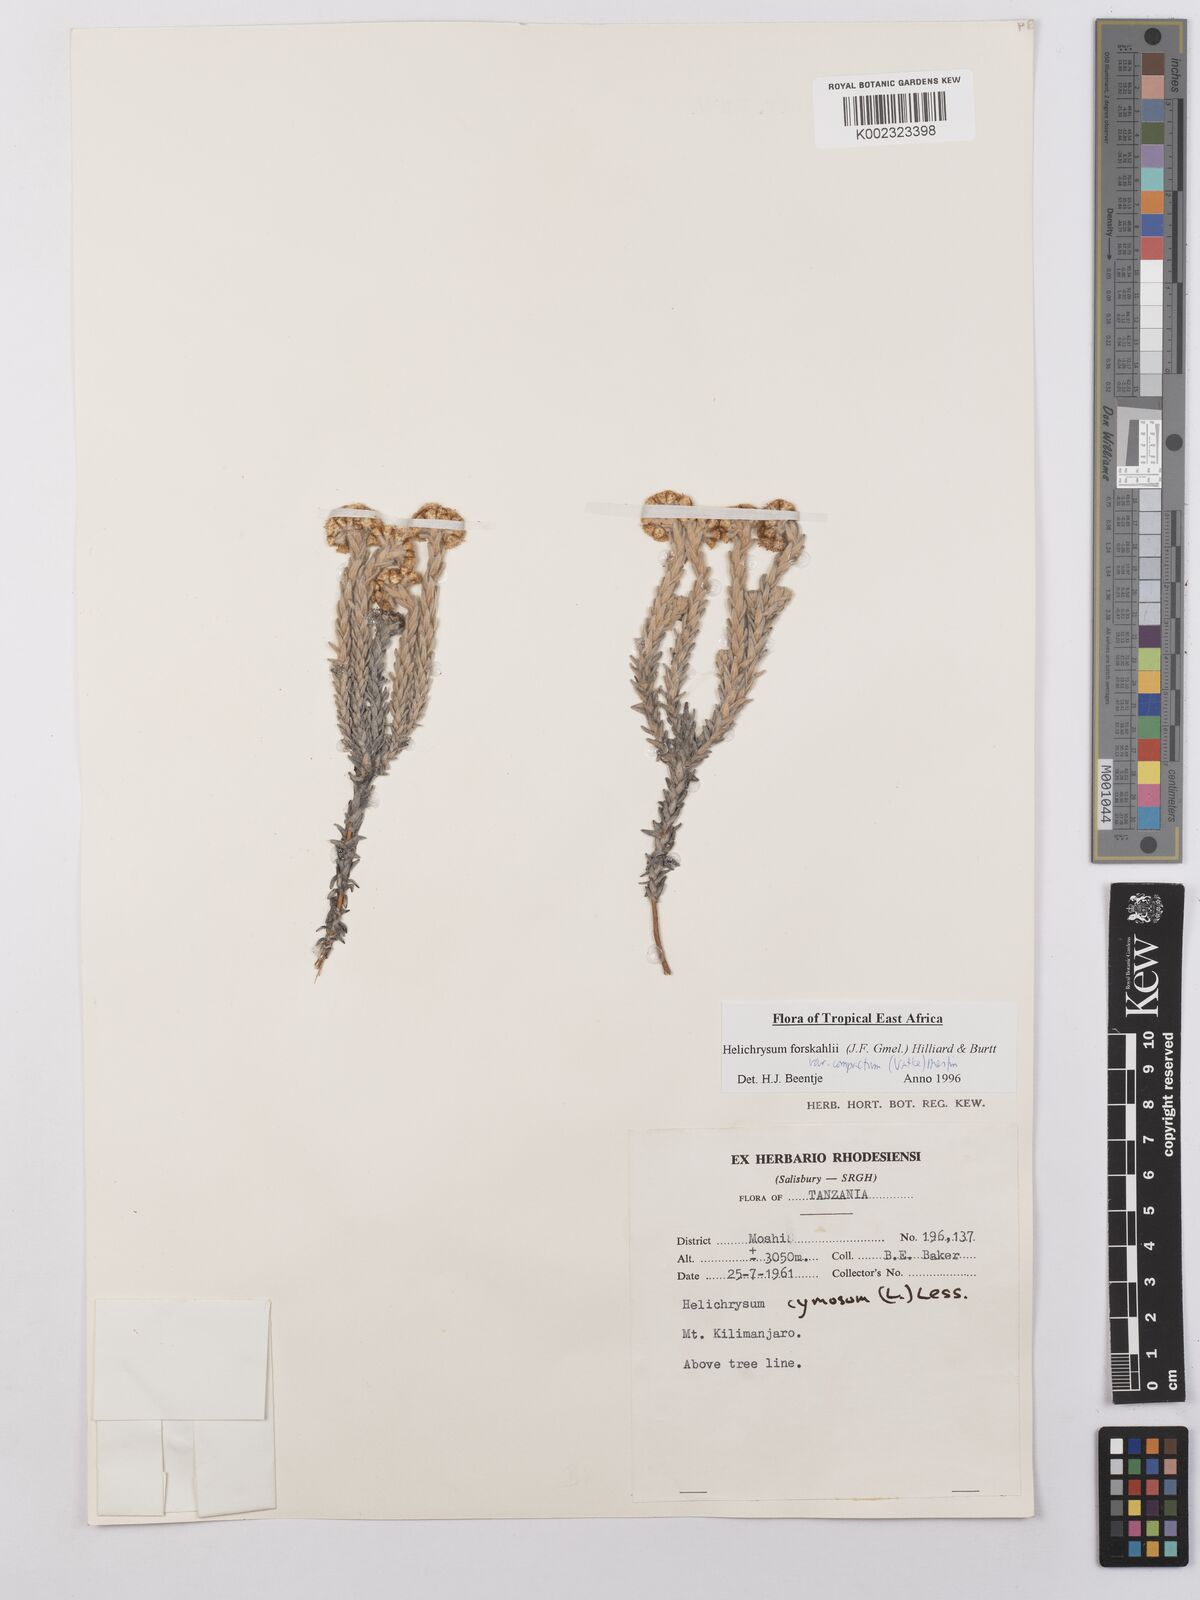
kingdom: Plantae
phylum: Tracheophyta
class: Magnoliopsida
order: Asterales
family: Asteraceae
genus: Helichrysum
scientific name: Helichrysum forskahlii
